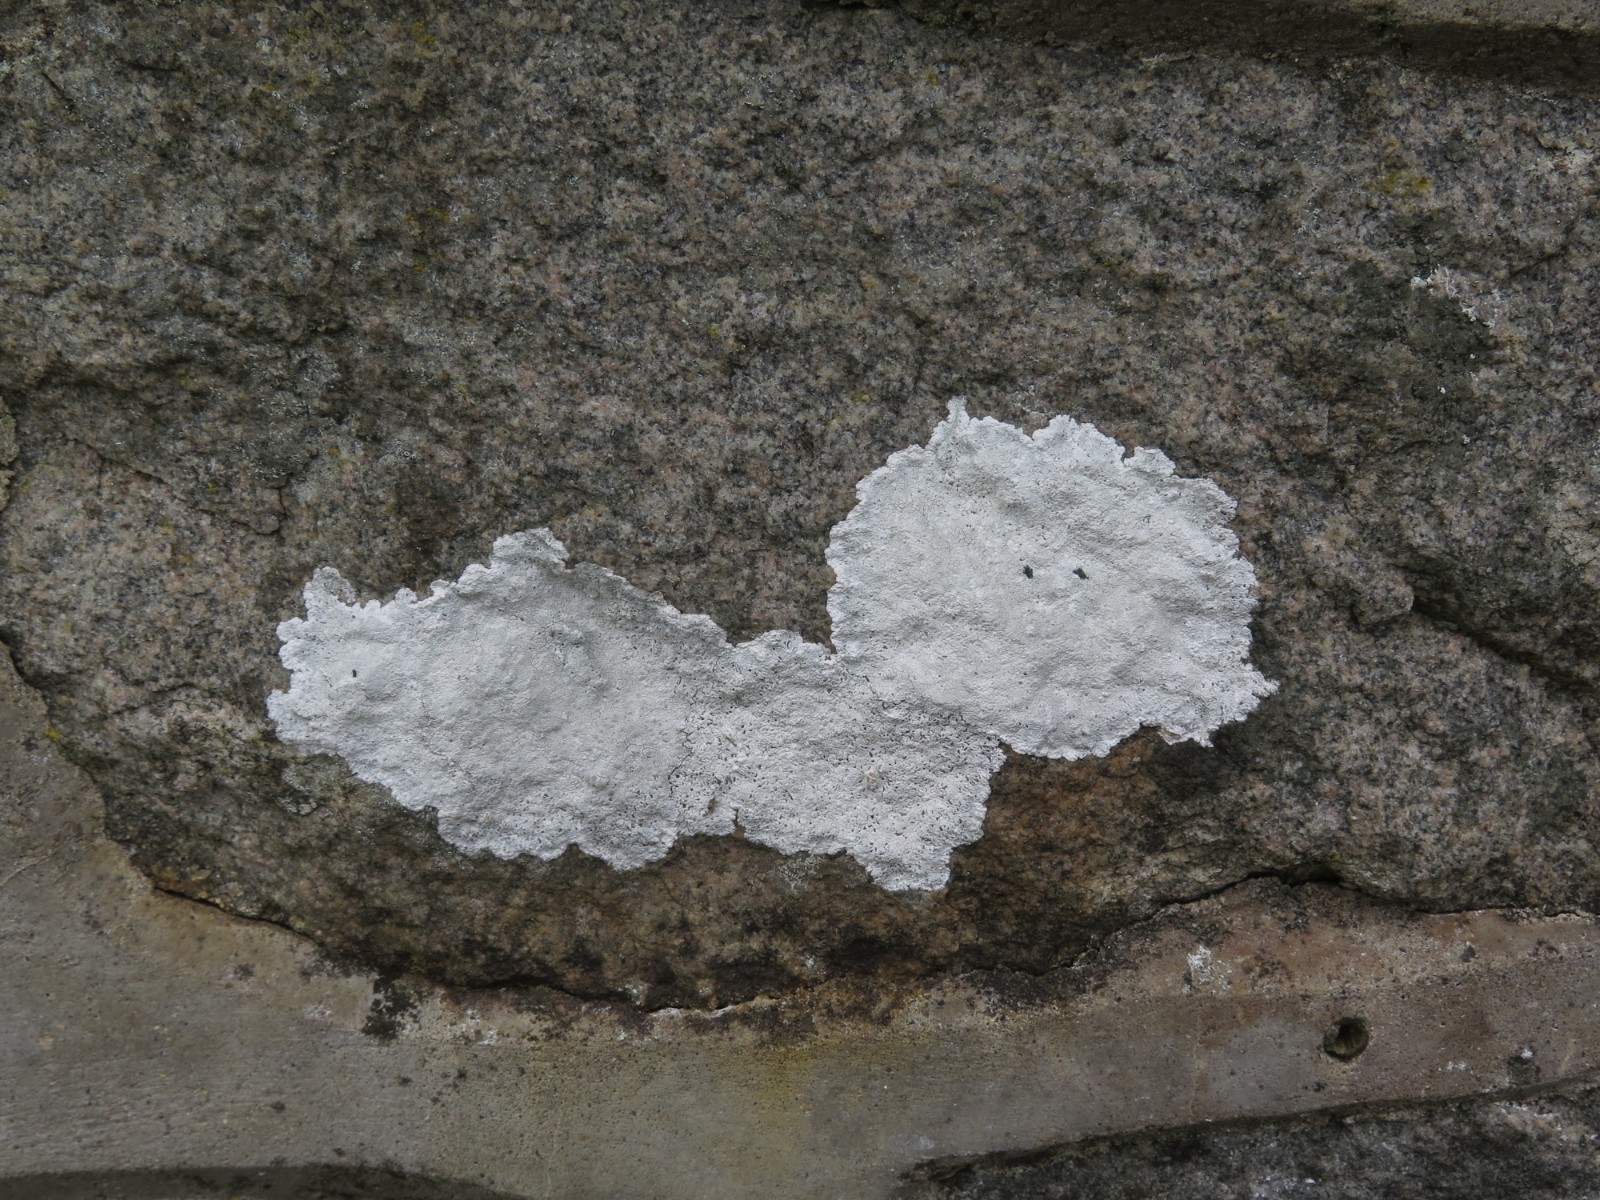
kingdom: Fungi
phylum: Ascomycota
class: Lecanoromycetes
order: Lecanorales
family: Lecanoraceae
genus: Glaucomaria
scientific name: Glaucomaria rupicola
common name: stengærde-kantskivelav
